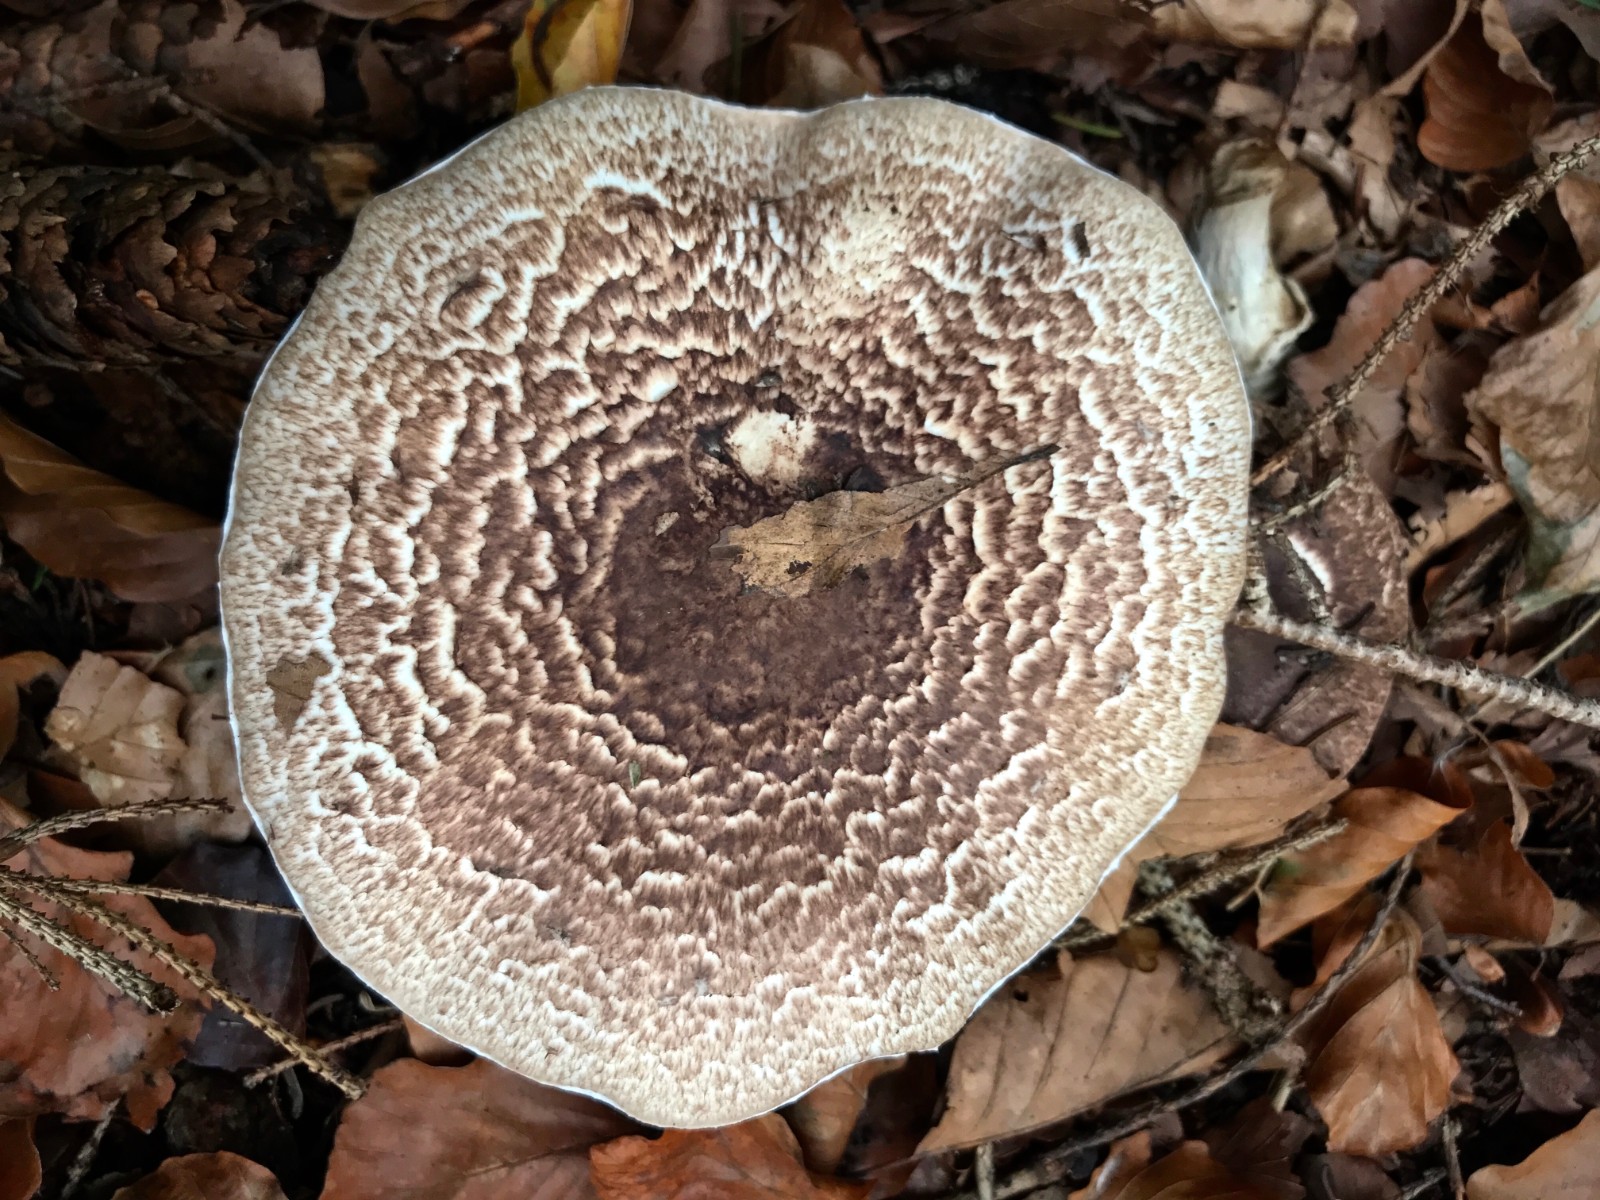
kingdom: Fungi
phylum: Basidiomycota
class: Agaricomycetes
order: Agaricales
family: Agaricaceae
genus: Agaricus
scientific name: Agaricus impudicus
